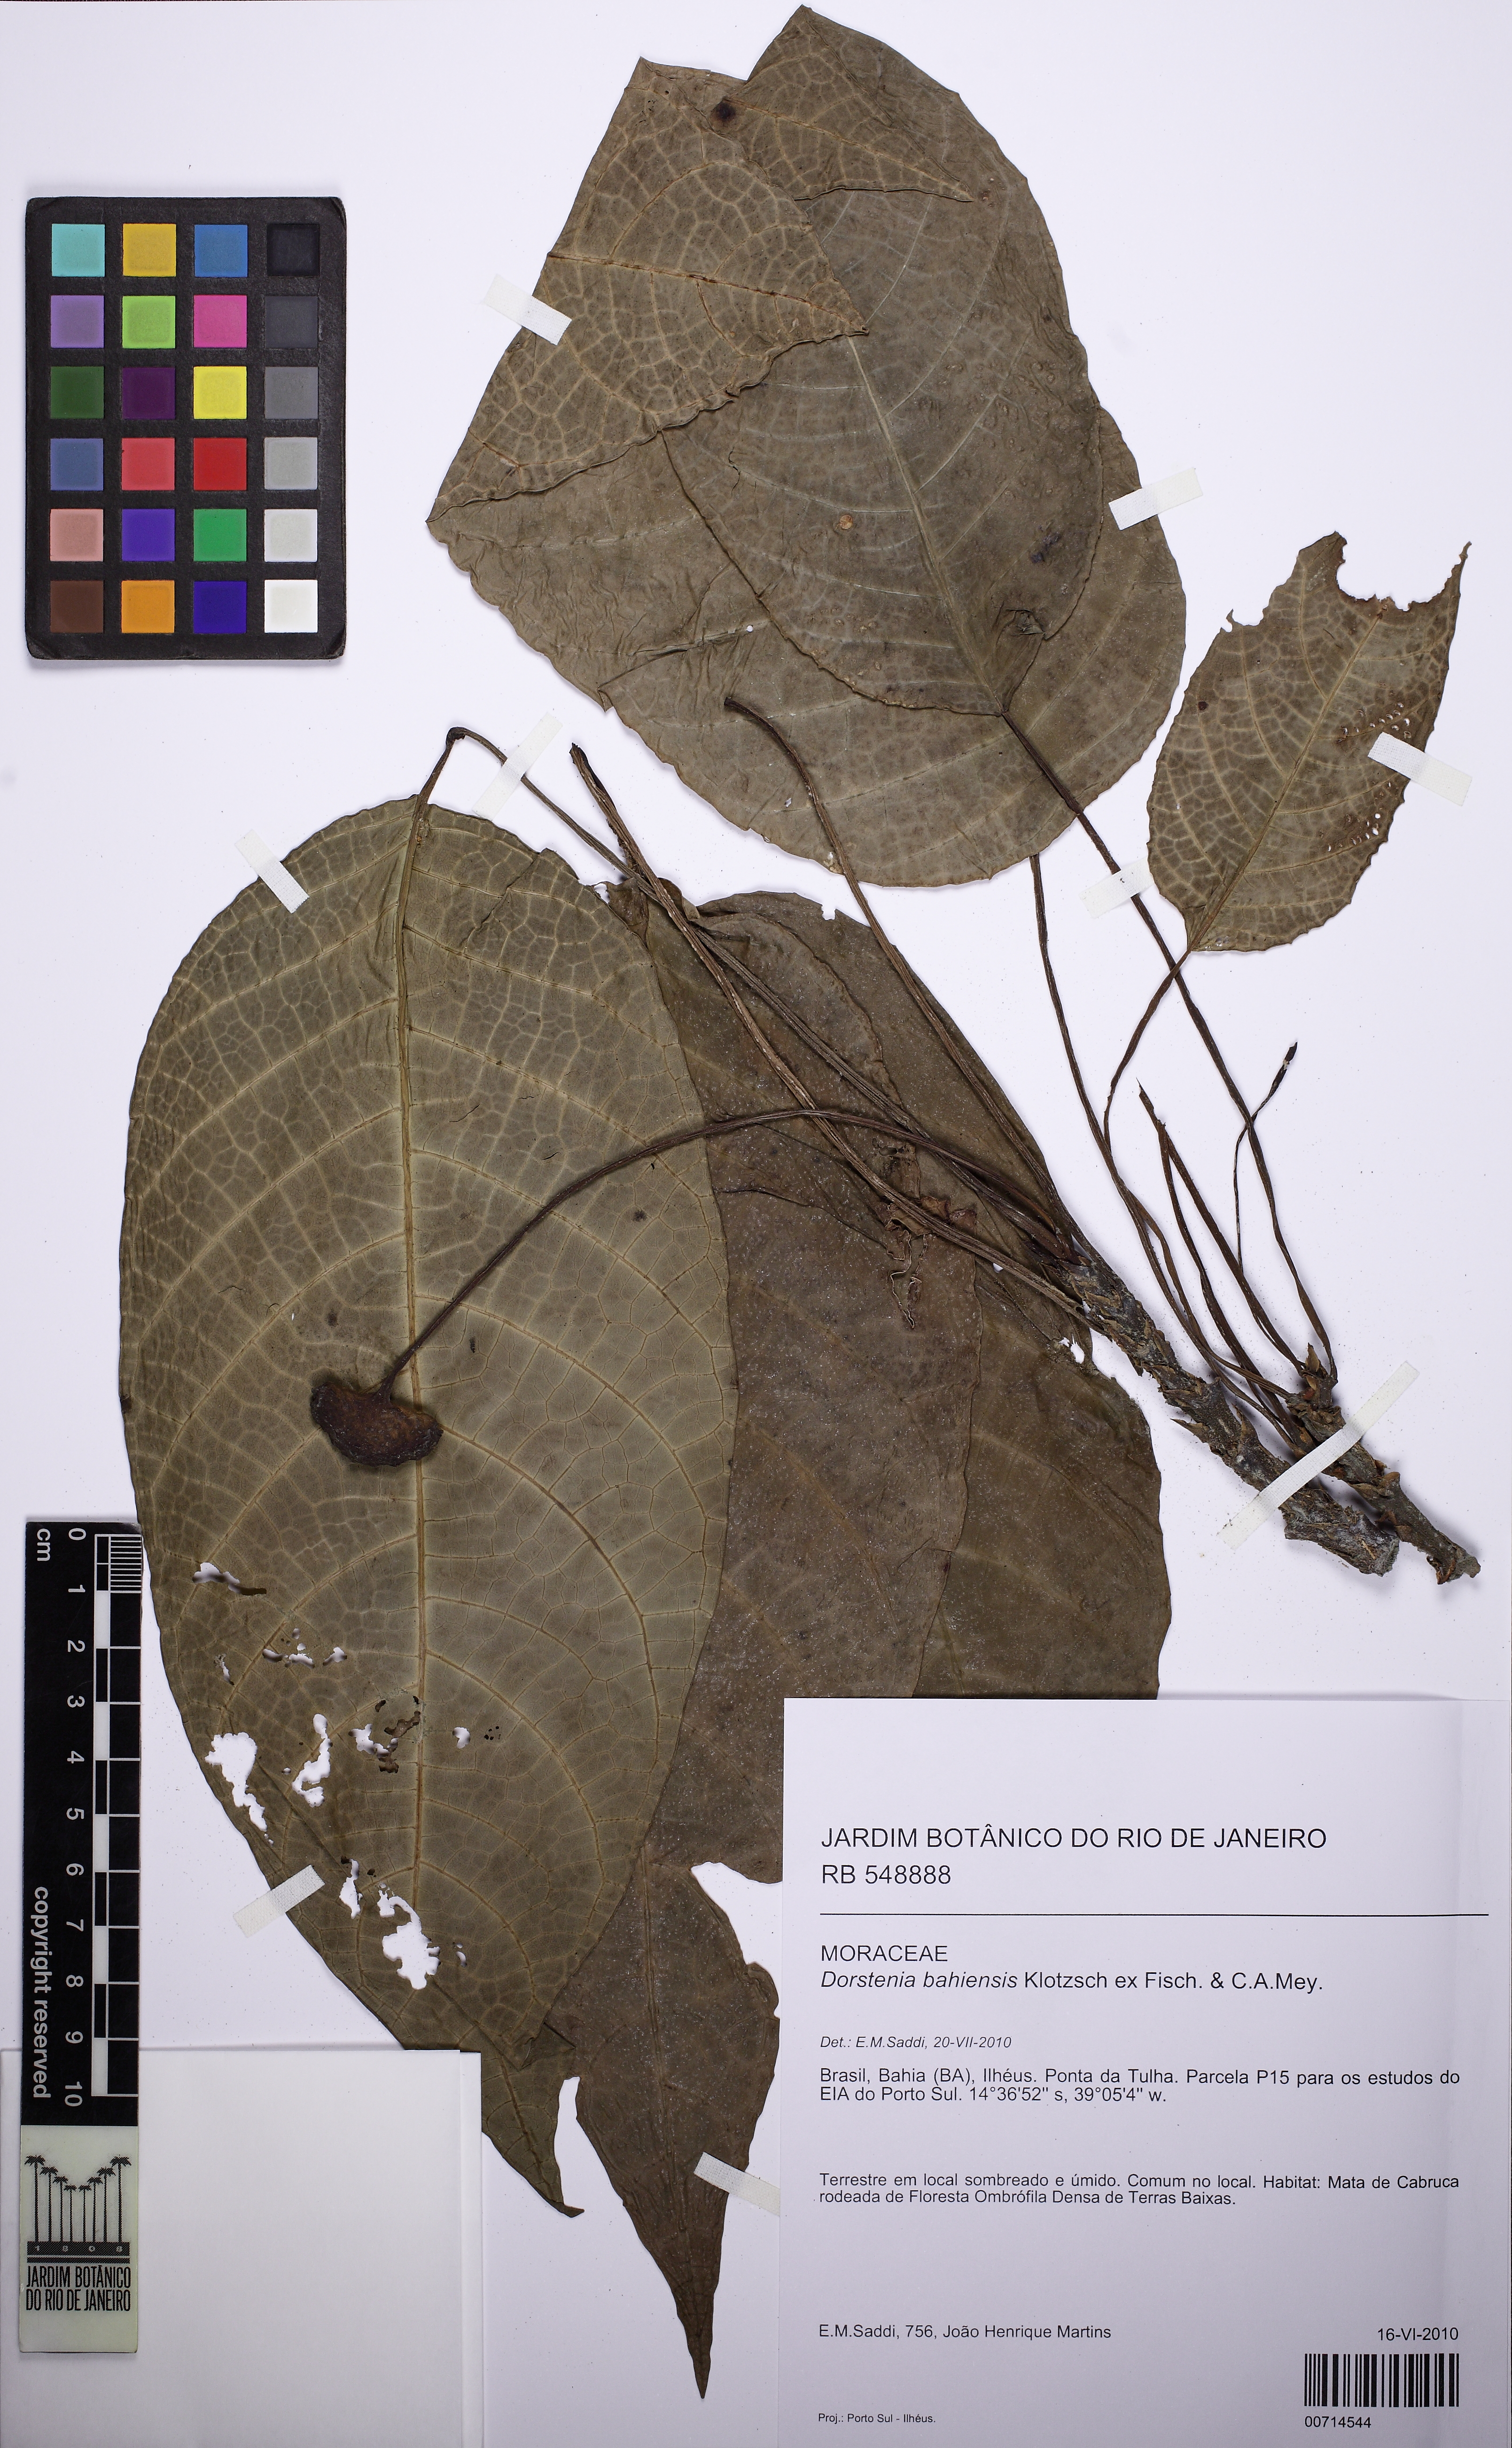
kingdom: Plantae
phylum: Tracheophyta
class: Magnoliopsida
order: Rosales
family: Moraceae
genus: Dorstenia
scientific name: Dorstenia bahiensis
